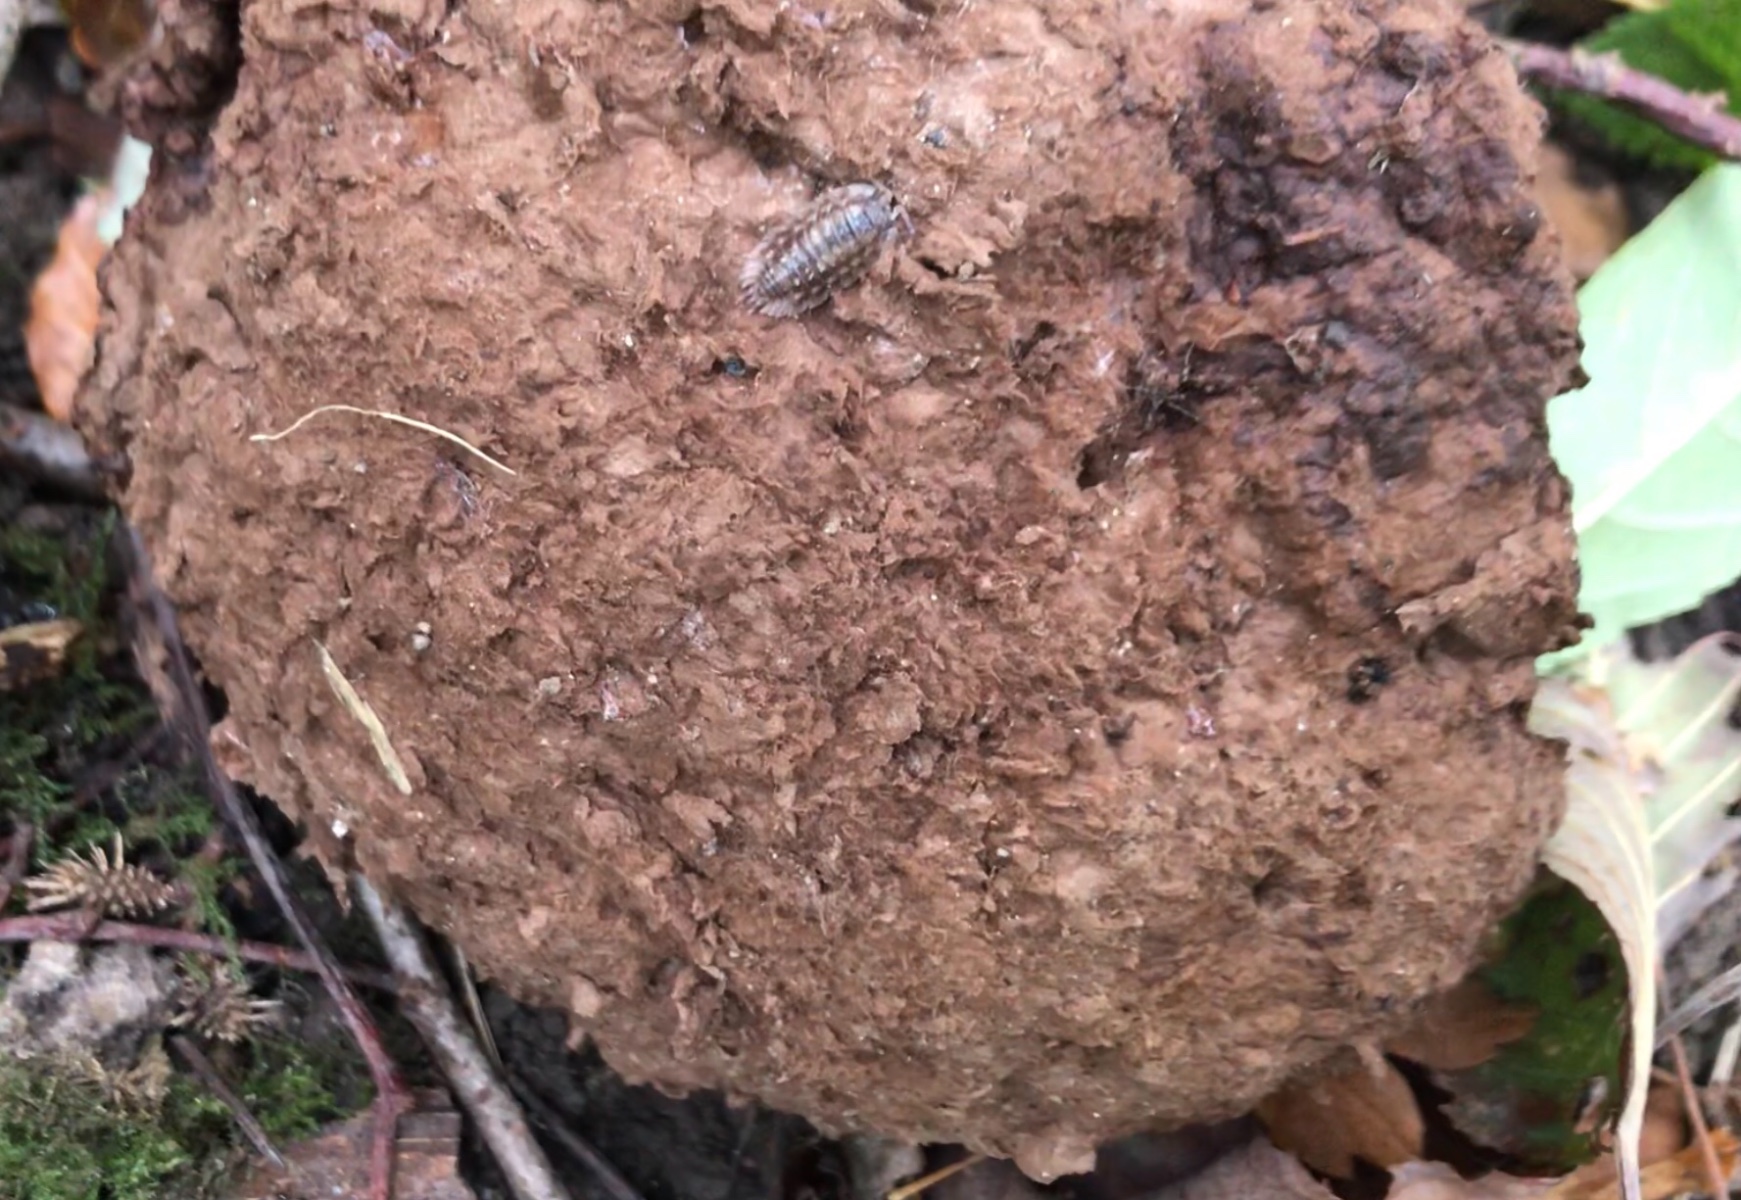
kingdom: Fungi
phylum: Basidiomycota
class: Agaricomycetes
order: Agaricales
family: Lycoperdaceae
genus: Calvatia
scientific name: Calvatia gigantea
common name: kæmpestøvbold
